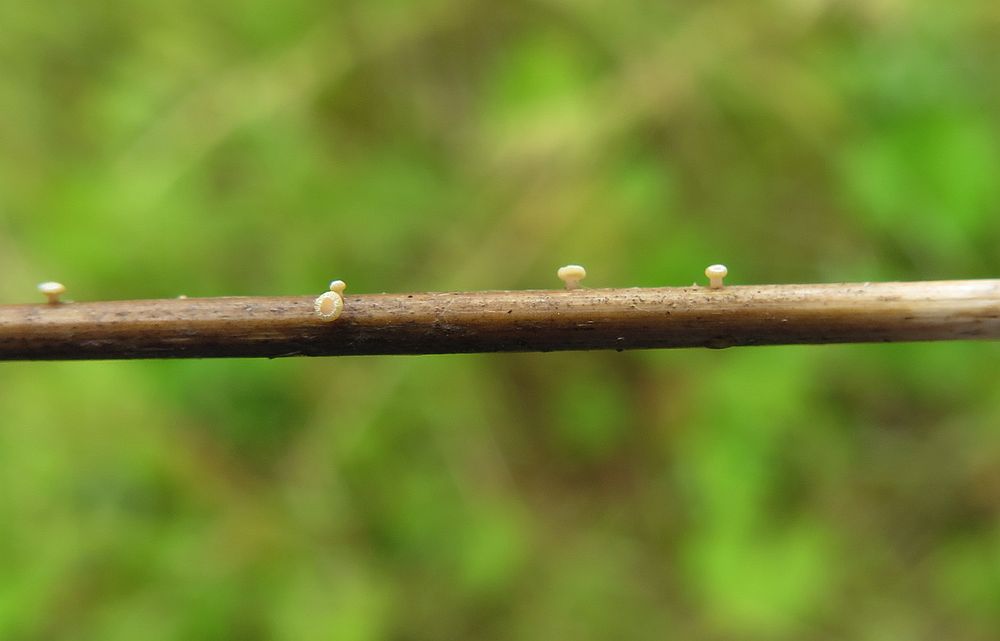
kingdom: Fungi
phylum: Ascomycota
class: Leotiomycetes
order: Helotiales
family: Helotiaceae
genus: Cyathicula
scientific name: Cyathicula culmicola
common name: græs-stilkskive
